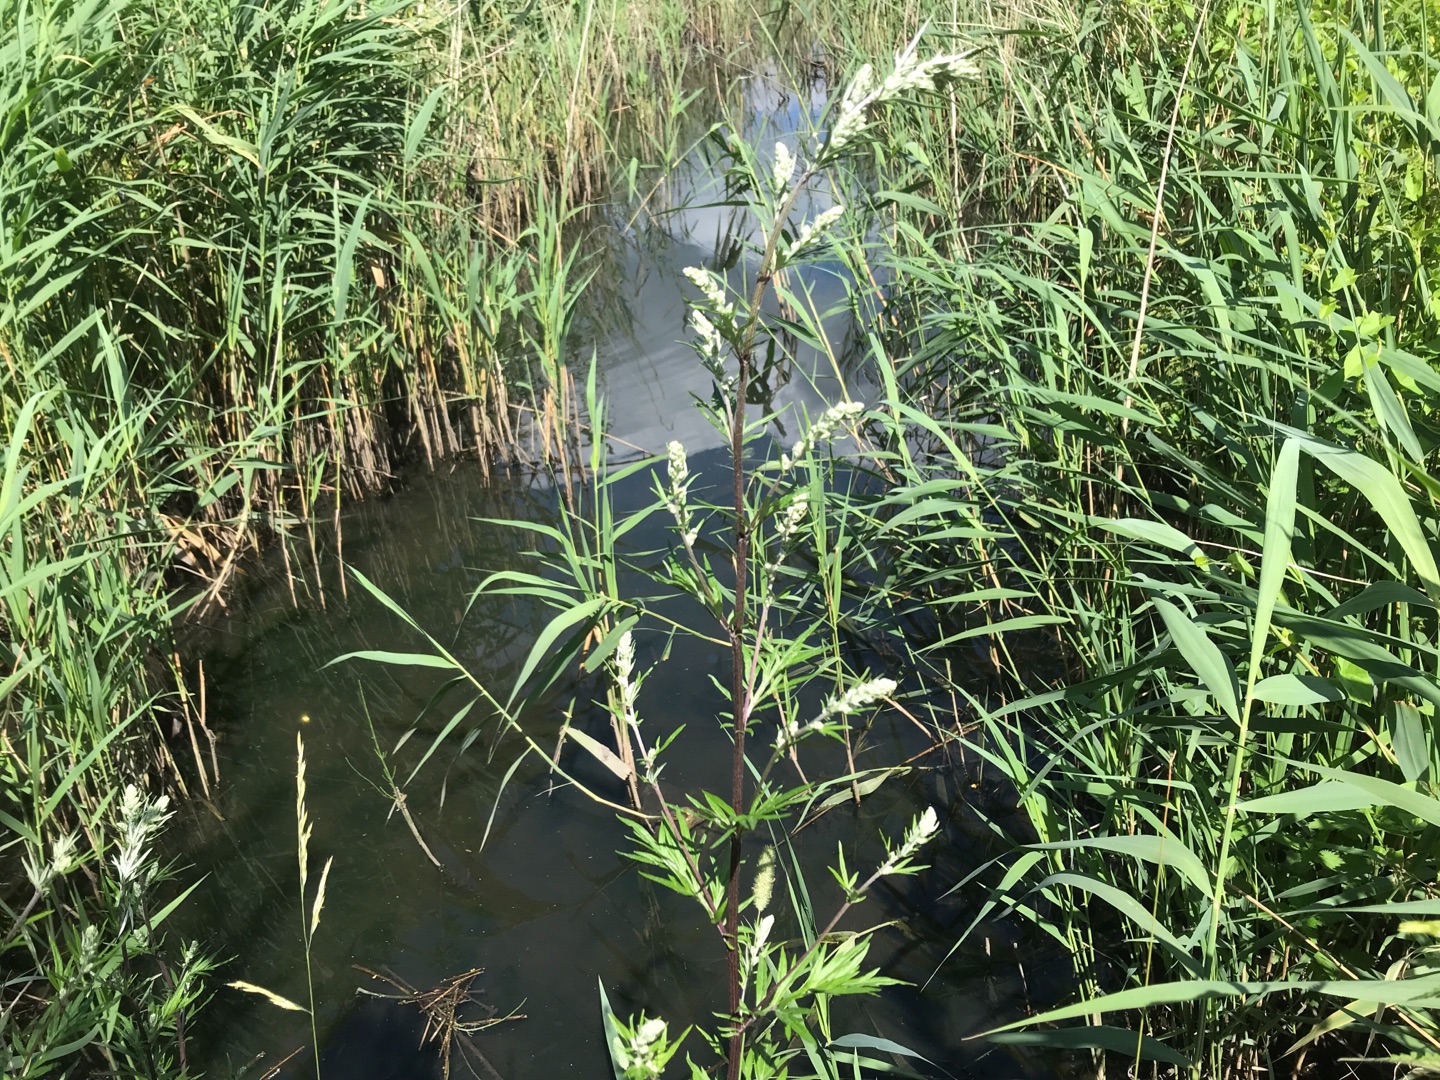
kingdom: Plantae
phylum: Tracheophyta
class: Magnoliopsida
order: Asterales
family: Asteraceae
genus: Artemisia
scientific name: Artemisia vulgaris
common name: Grå-bynke
